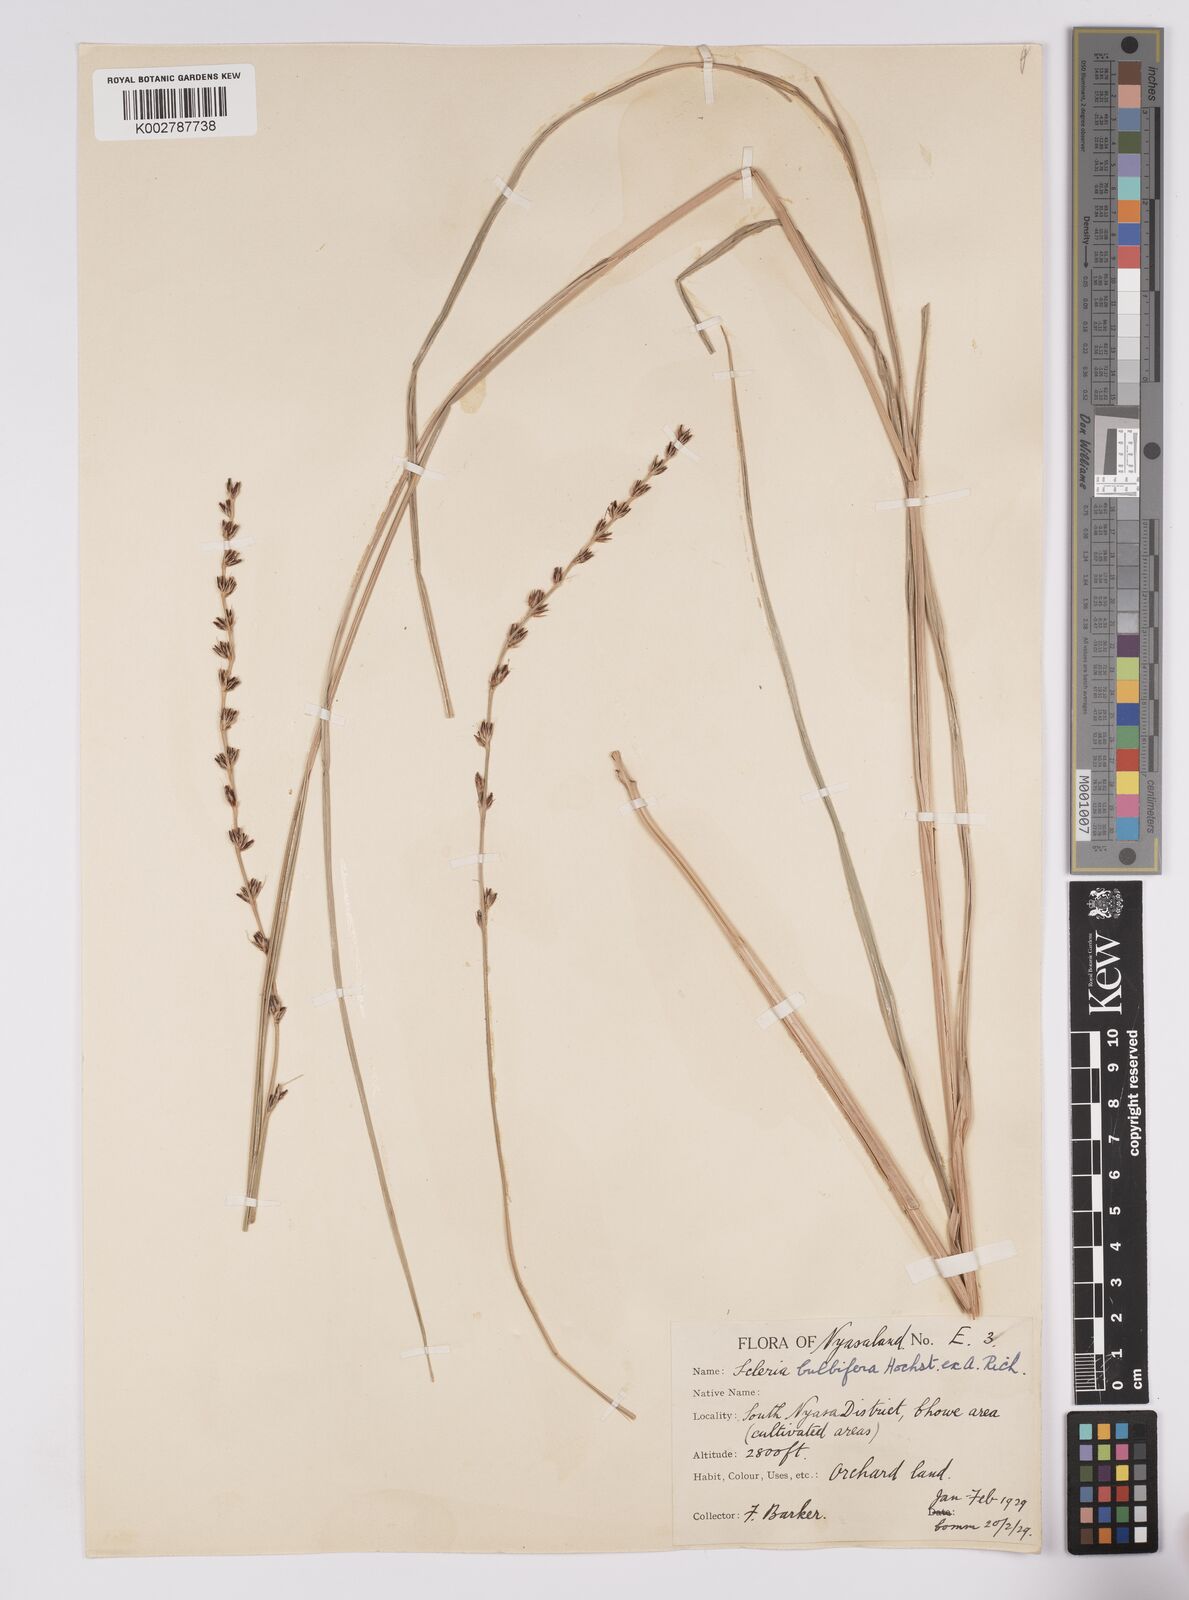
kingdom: Plantae
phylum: Tracheophyta
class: Liliopsida
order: Poales
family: Cyperaceae
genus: Scleria
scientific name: Scleria bulbifera
